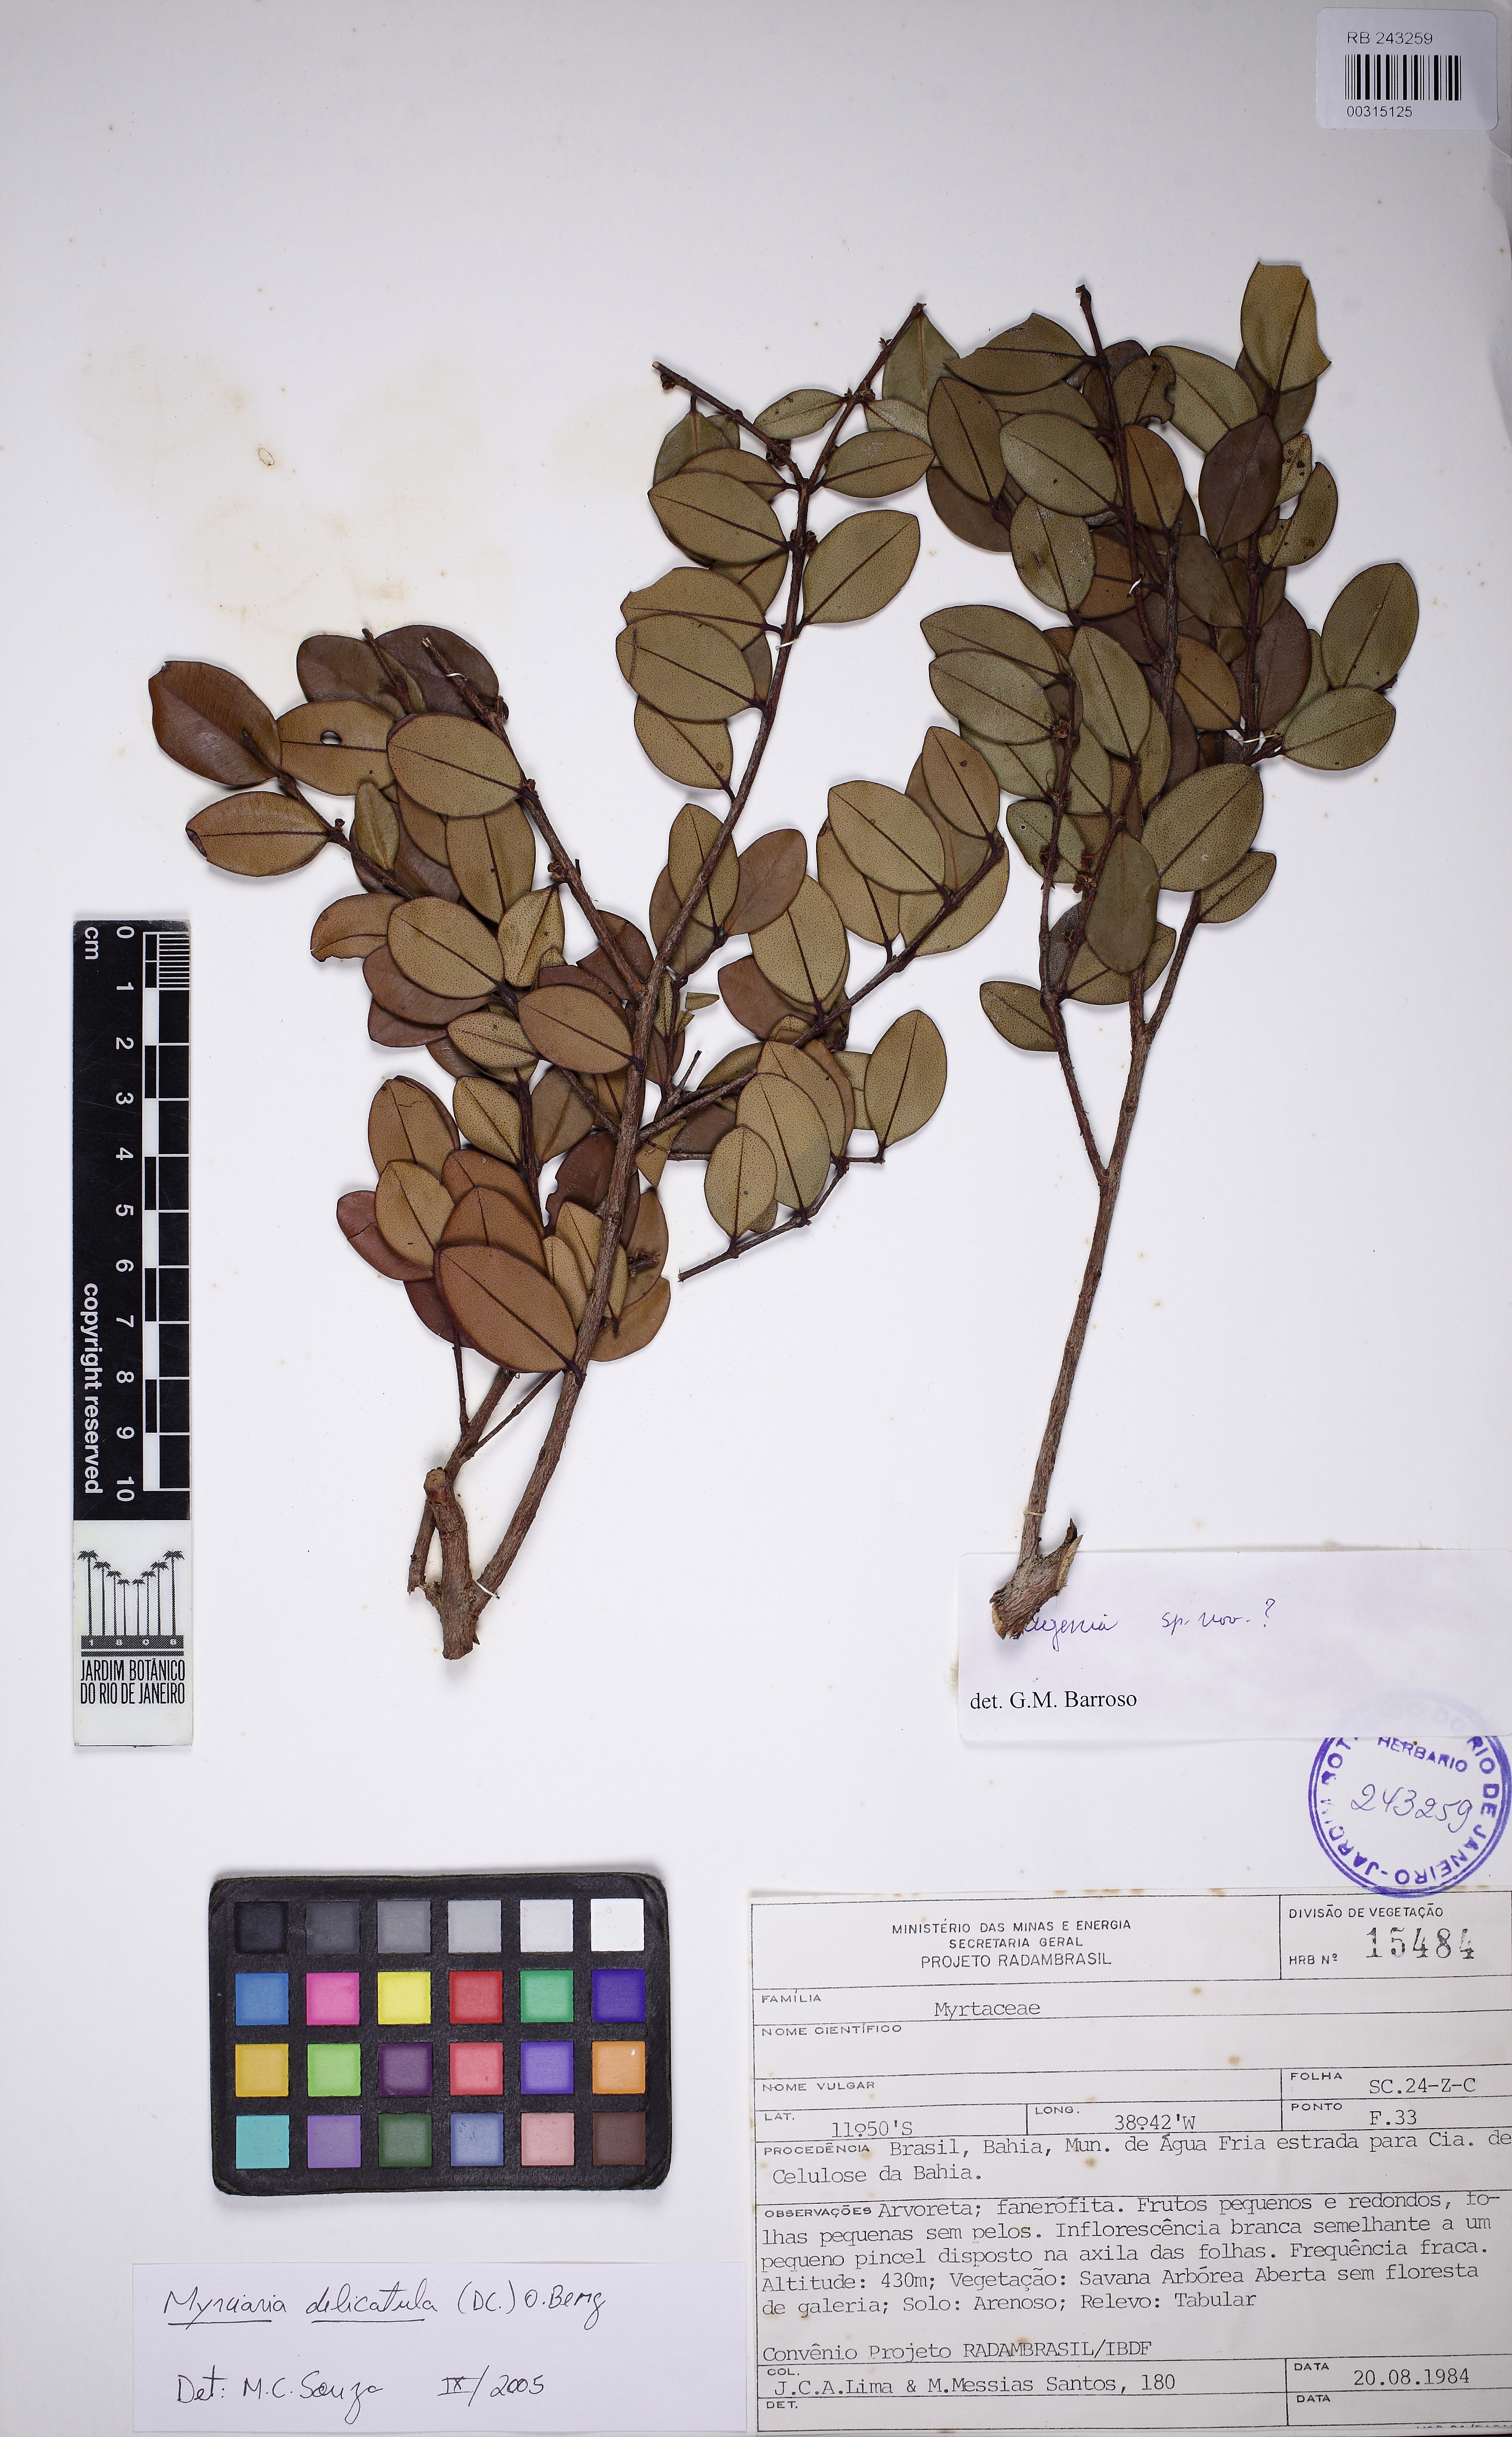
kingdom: Plantae
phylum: Tracheophyta
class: Magnoliopsida
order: Myrtales
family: Myrtaceae
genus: Myrciaria
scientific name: Myrciaria delicatula
